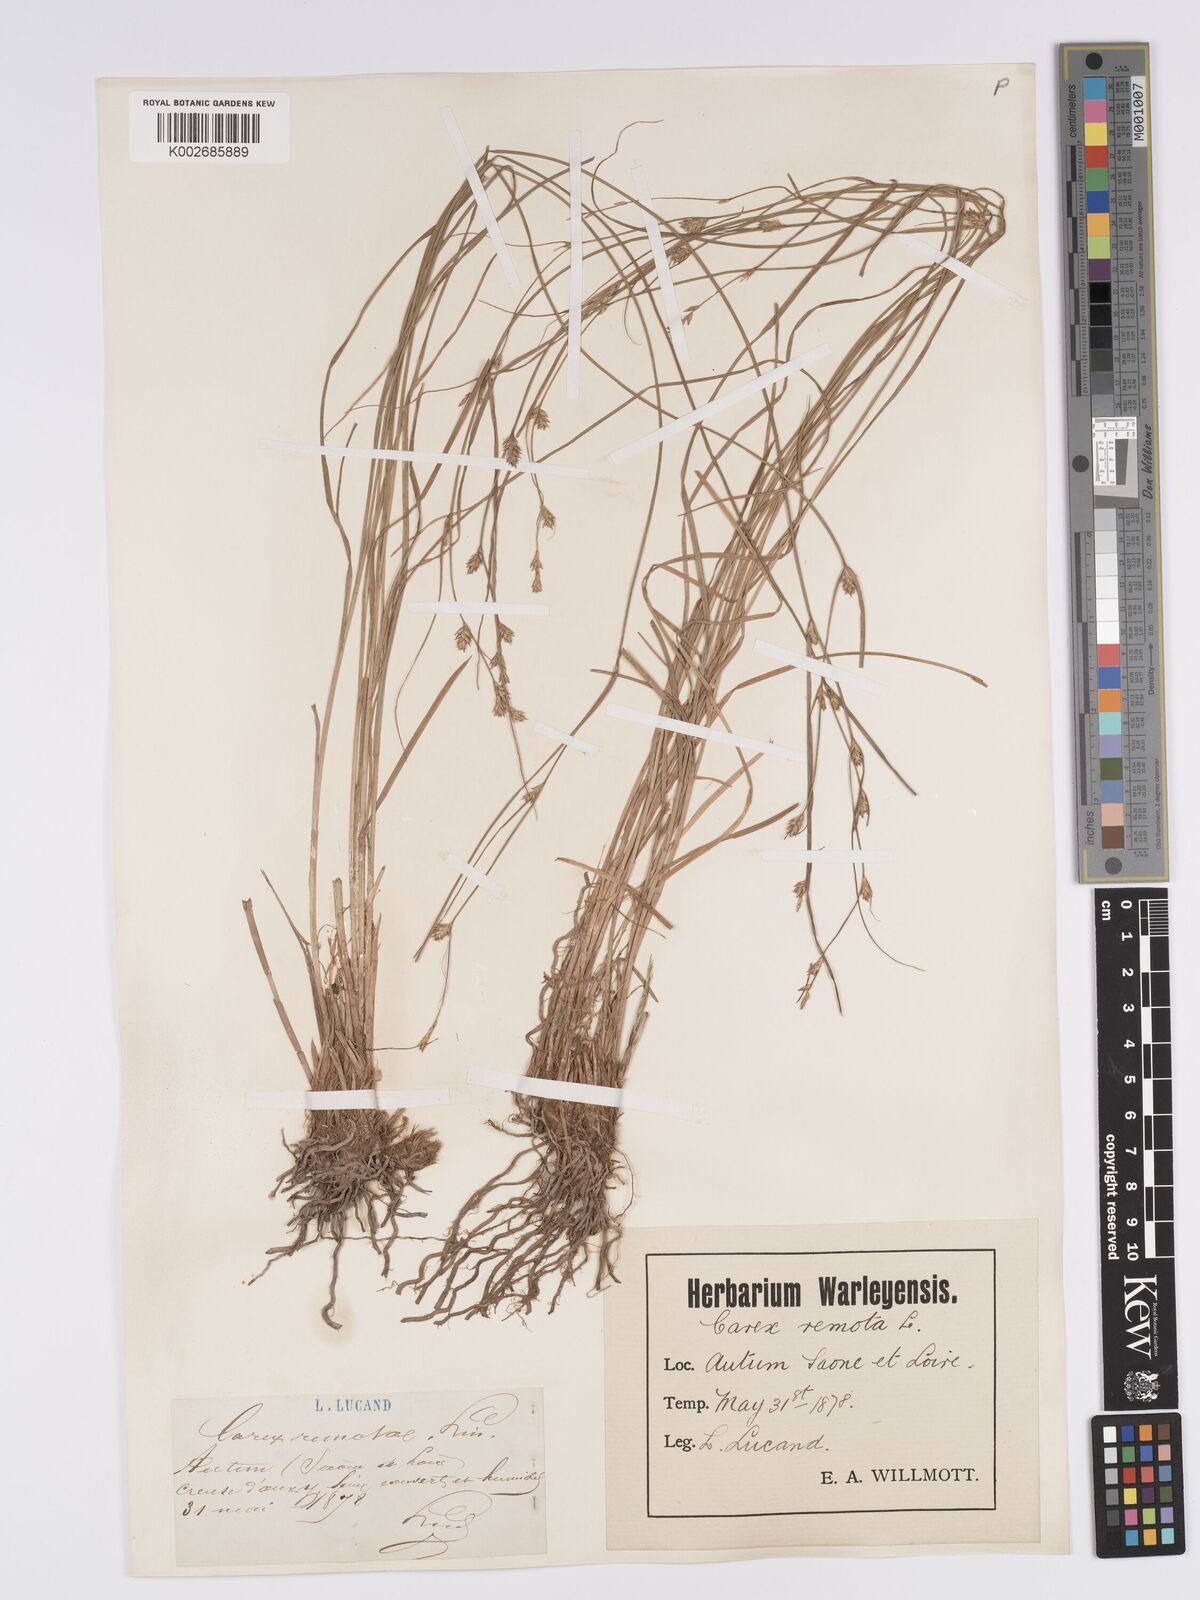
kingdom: Plantae
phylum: Tracheophyta
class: Liliopsida
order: Poales
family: Cyperaceae
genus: Carex
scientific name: Carex remota
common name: Remote sedge
